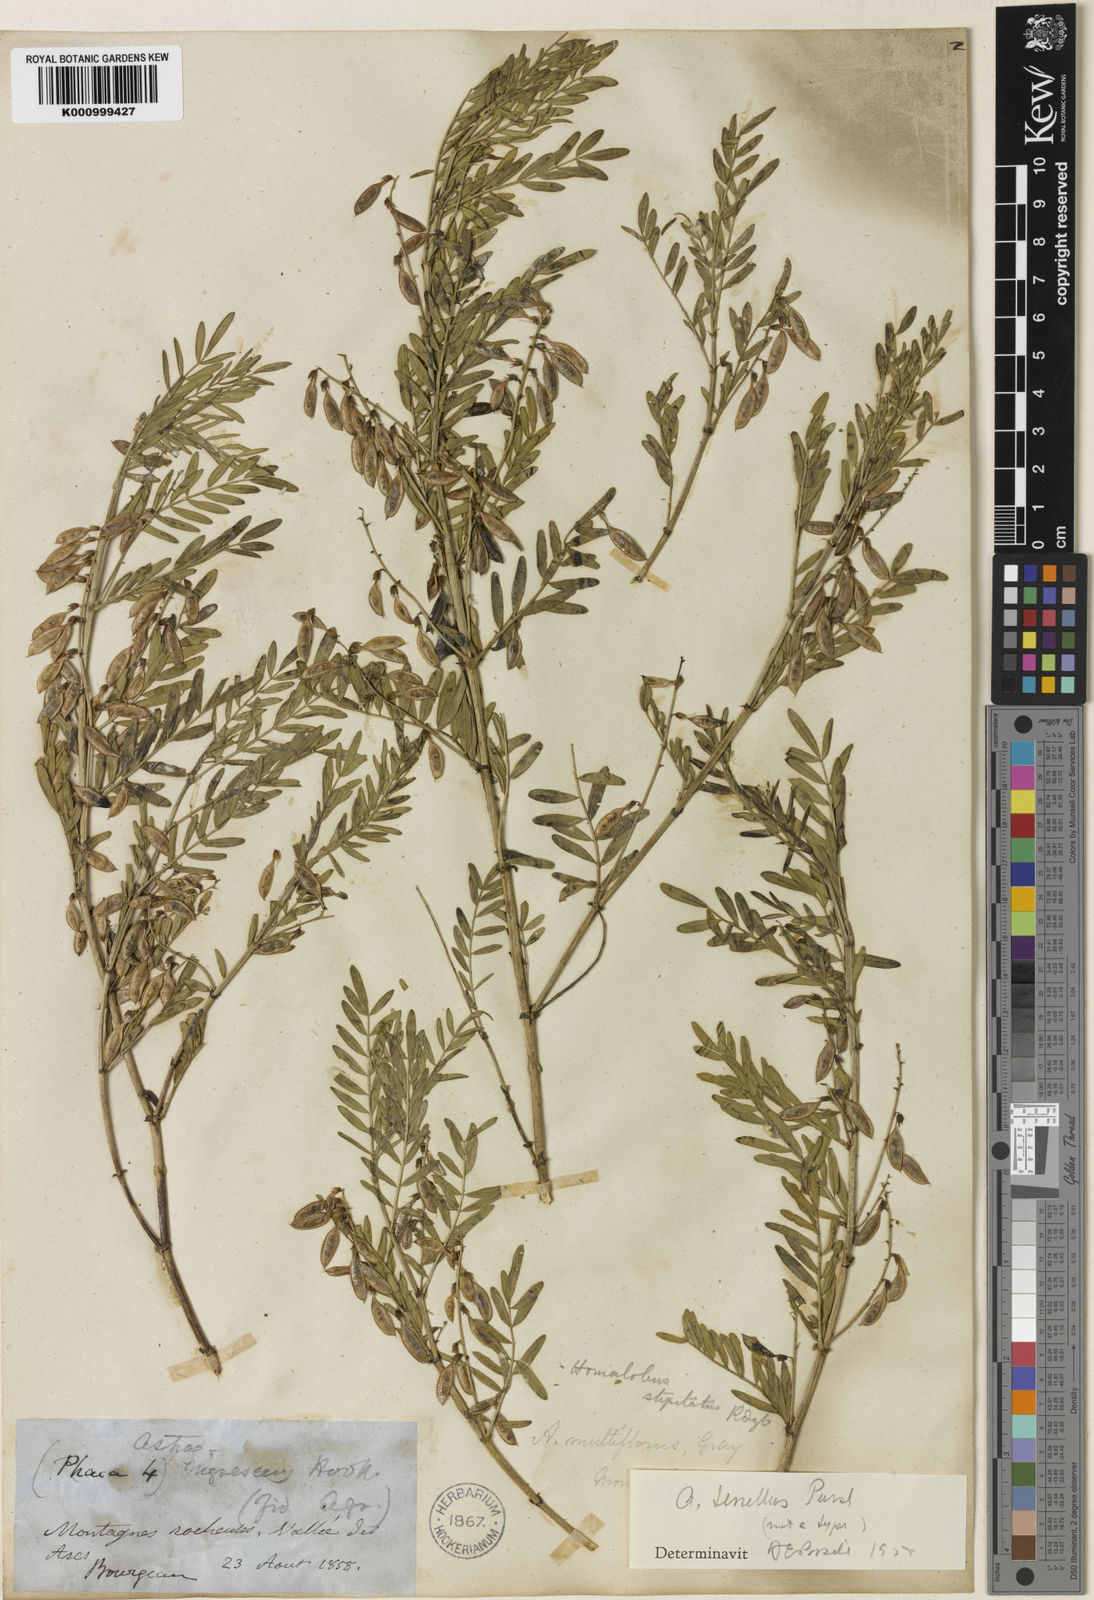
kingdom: Plantae
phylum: Tracheophyta
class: Magnoliopsida
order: Fabales
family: Fabaceae
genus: Astragalus
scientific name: Astragalus bourgovii
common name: Bourgeau's milk-vetch
